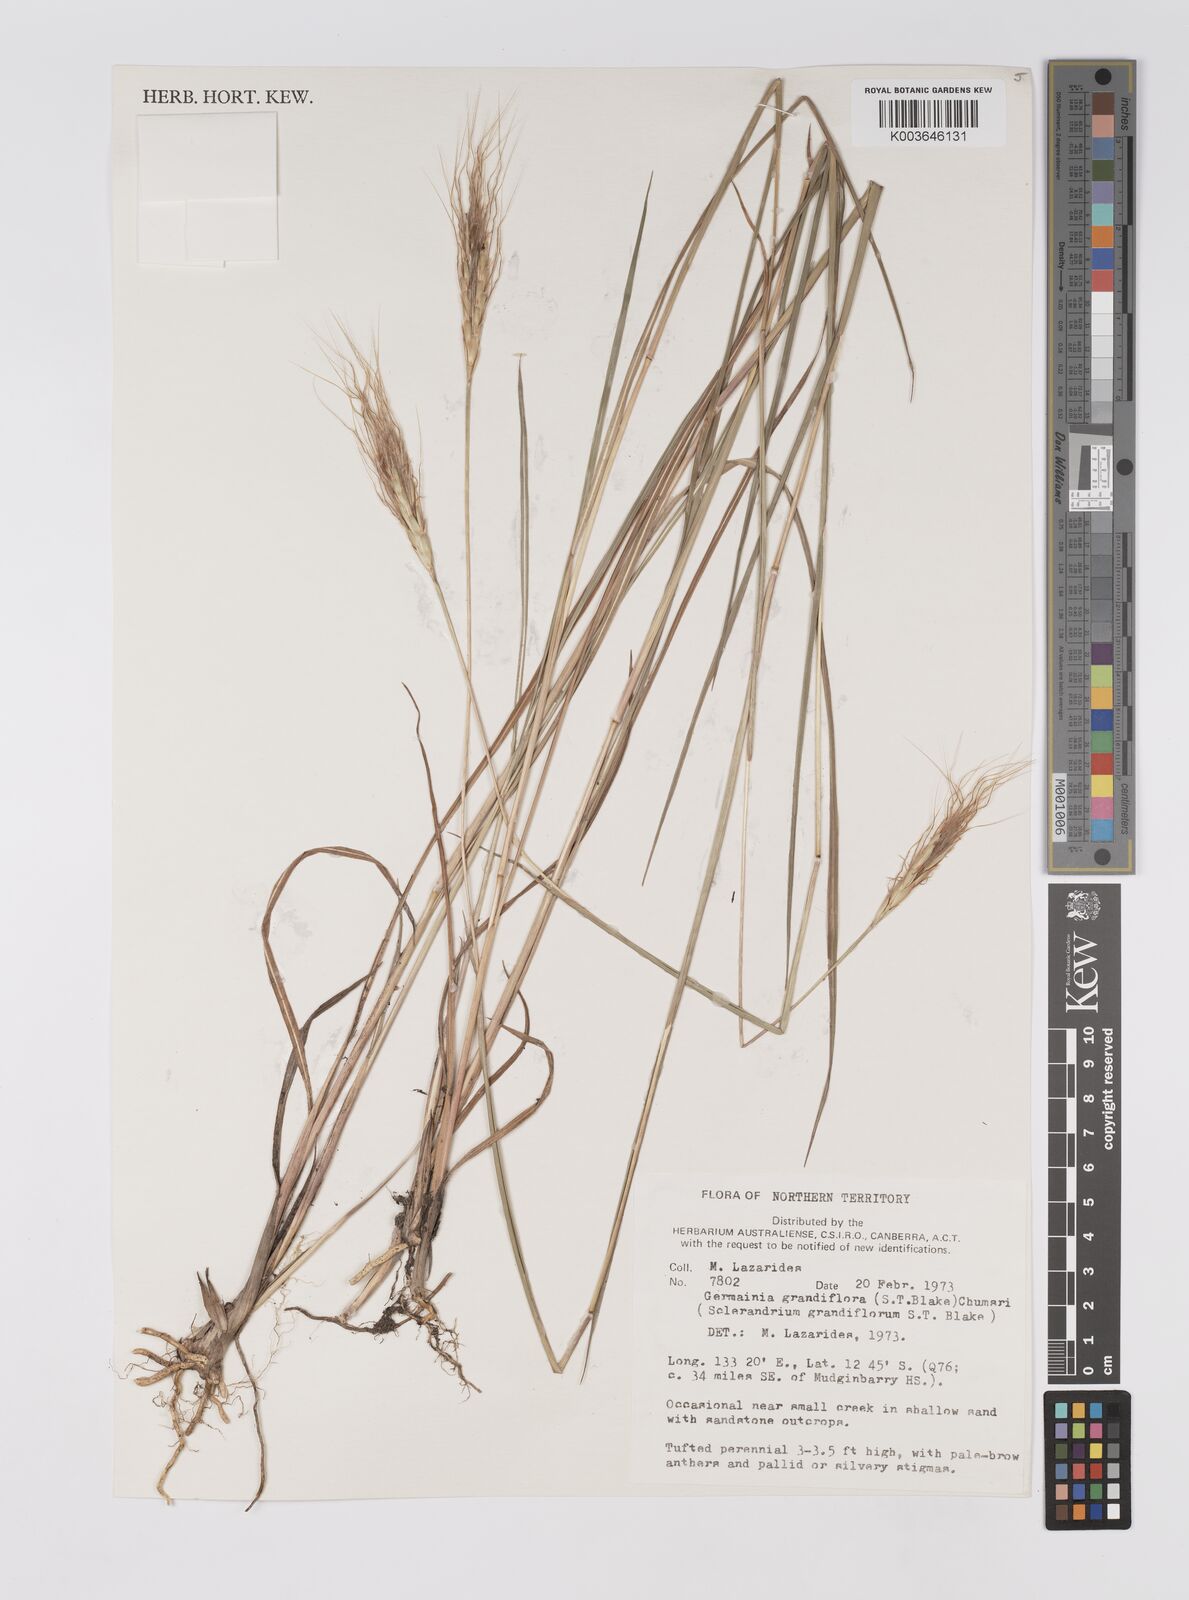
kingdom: Plantae
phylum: Tracheophyta
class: Liliopsida
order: Poales
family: Poaceae
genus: Germainia
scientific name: Germainia grandiflora
